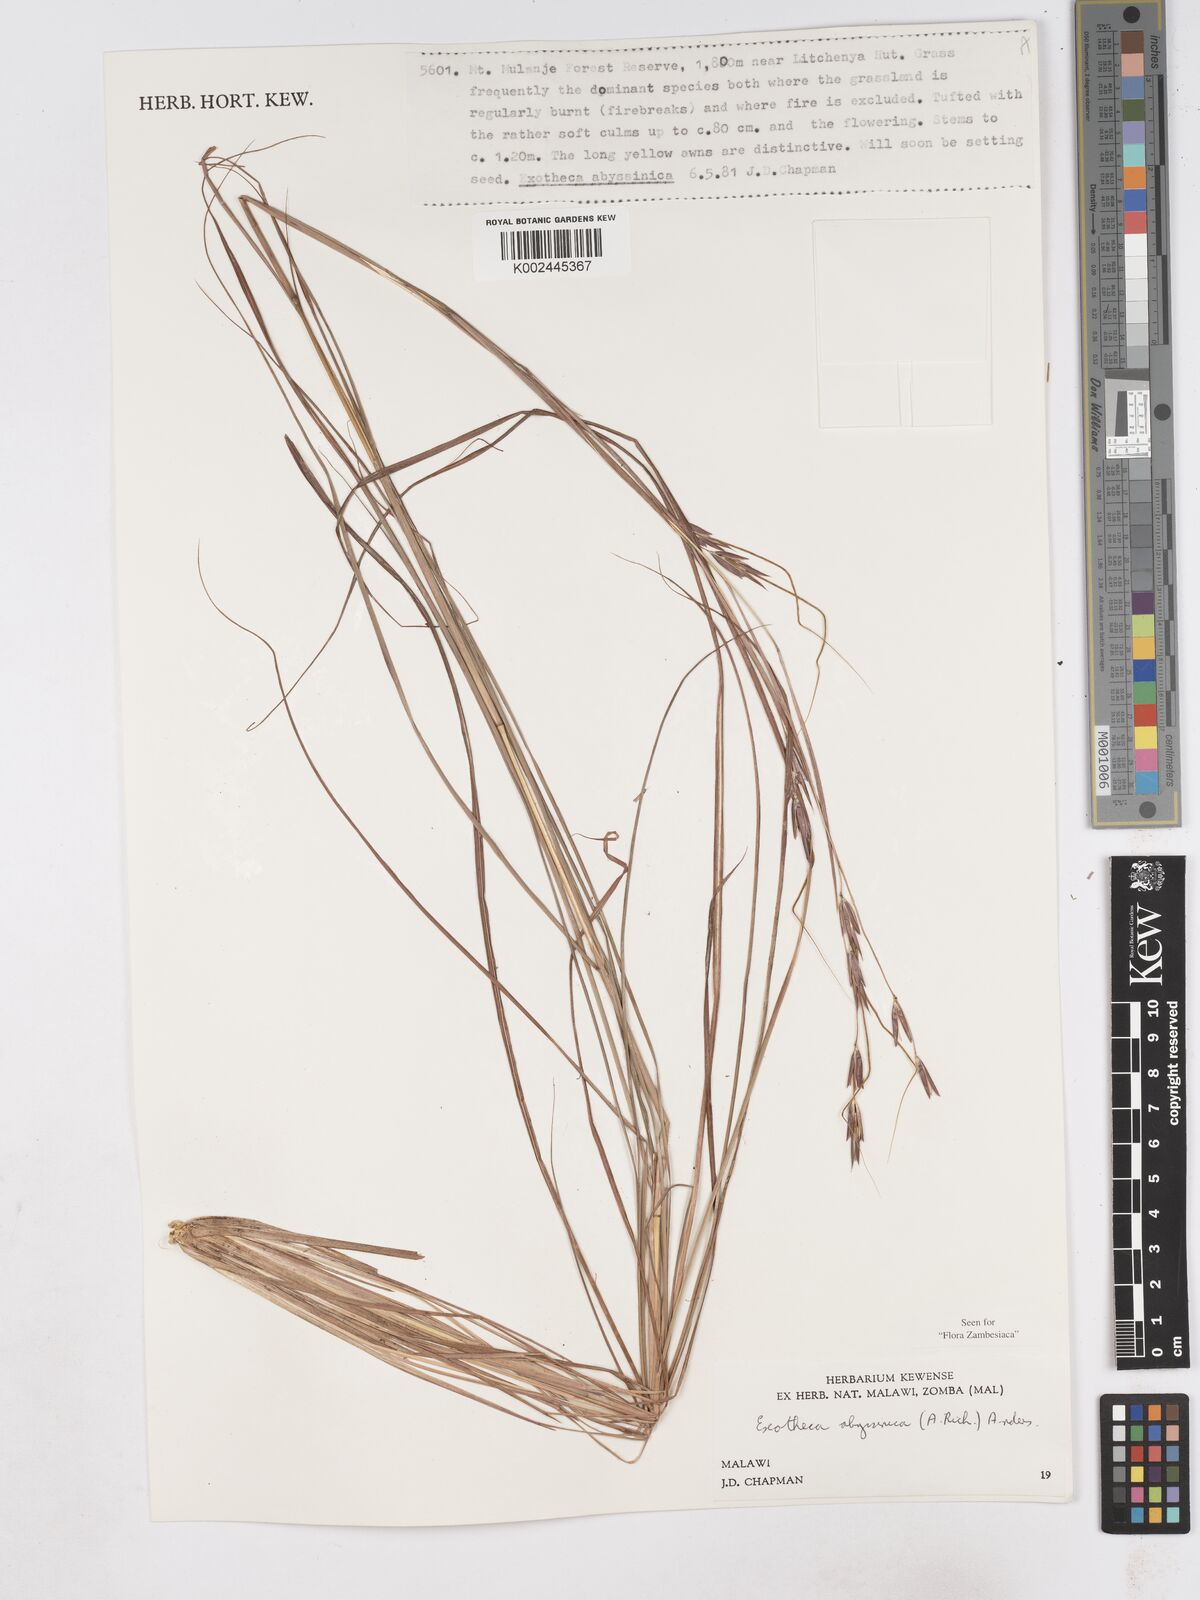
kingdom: Plantae
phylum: Tracheophyta
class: Liliopsida
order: Poales
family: Poaceae
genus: Exotheca
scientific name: Exotheca abyssinica
